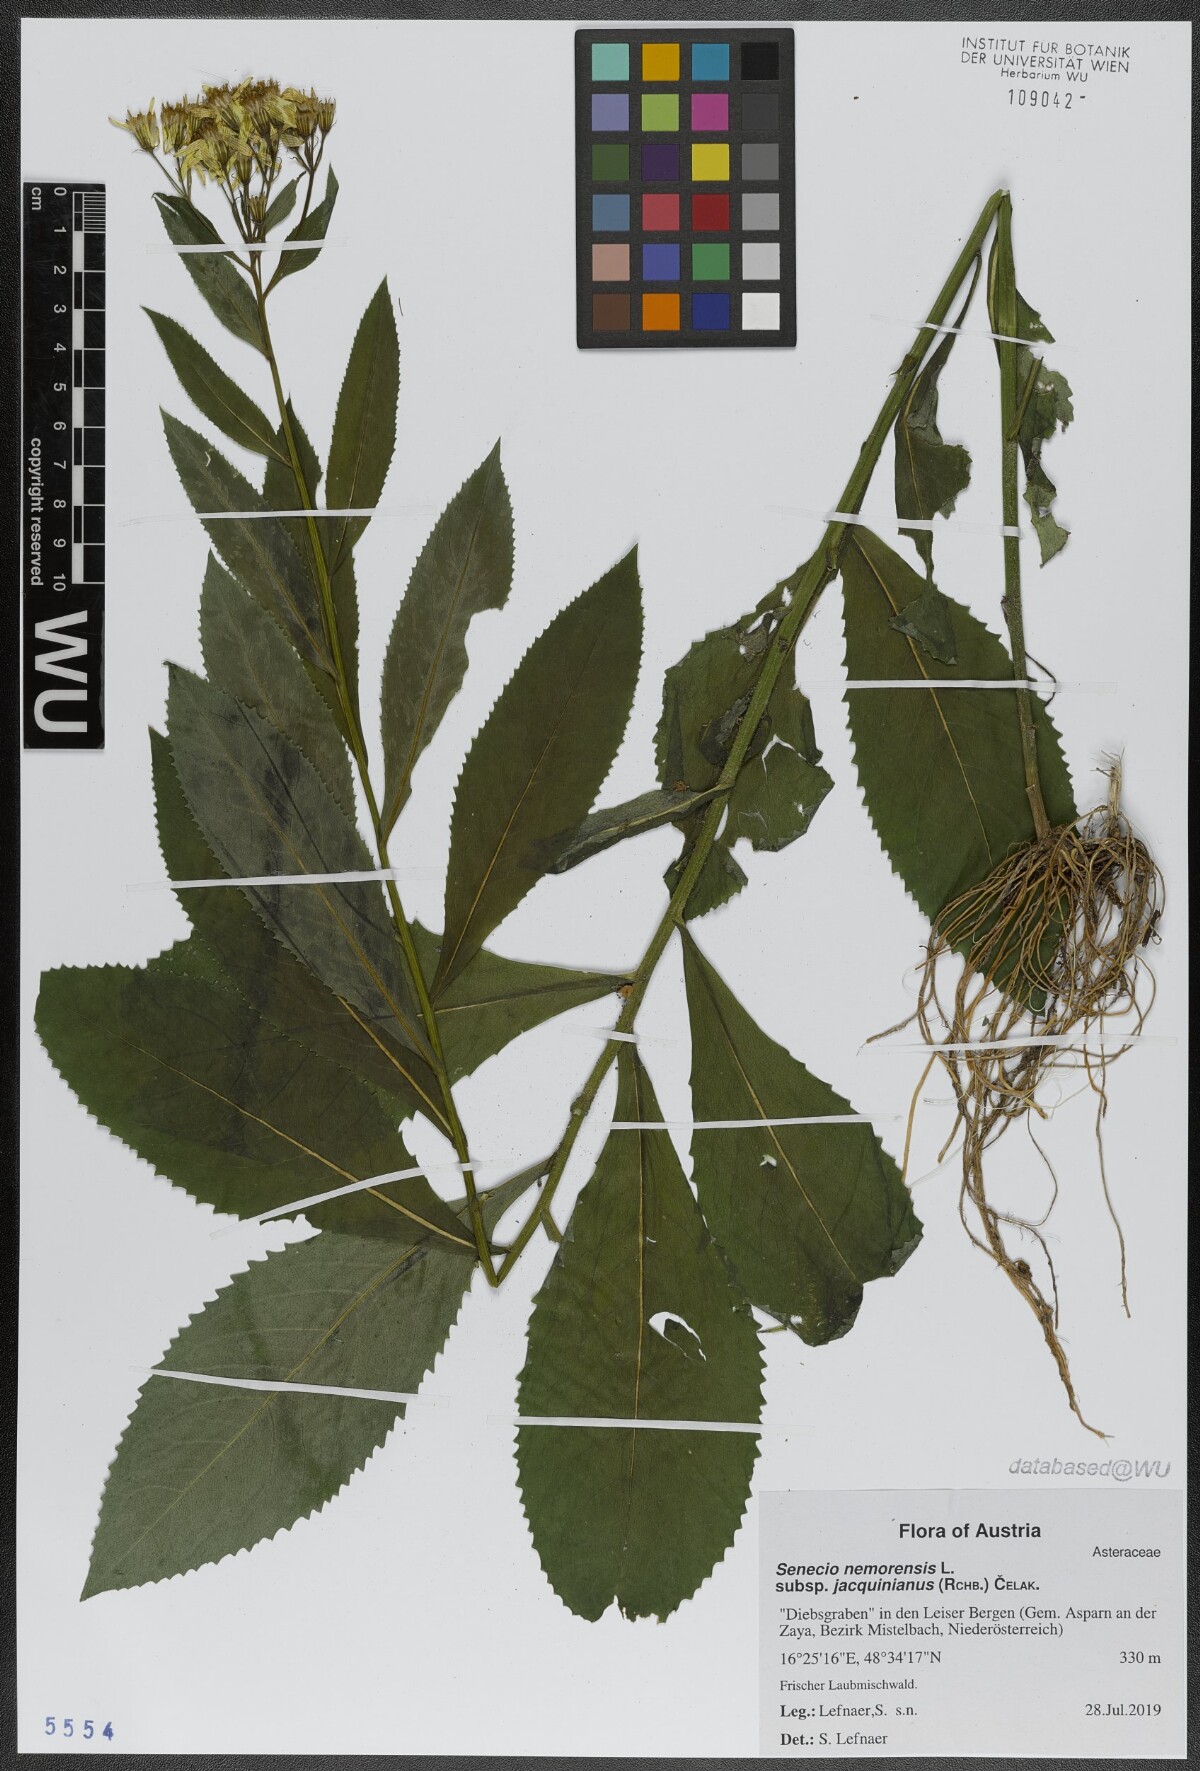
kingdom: Plantae
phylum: Tracheophyta
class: Magnoliopsida
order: Asterales
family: Asteraceae
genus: Senecio
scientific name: Senecio germanicus
